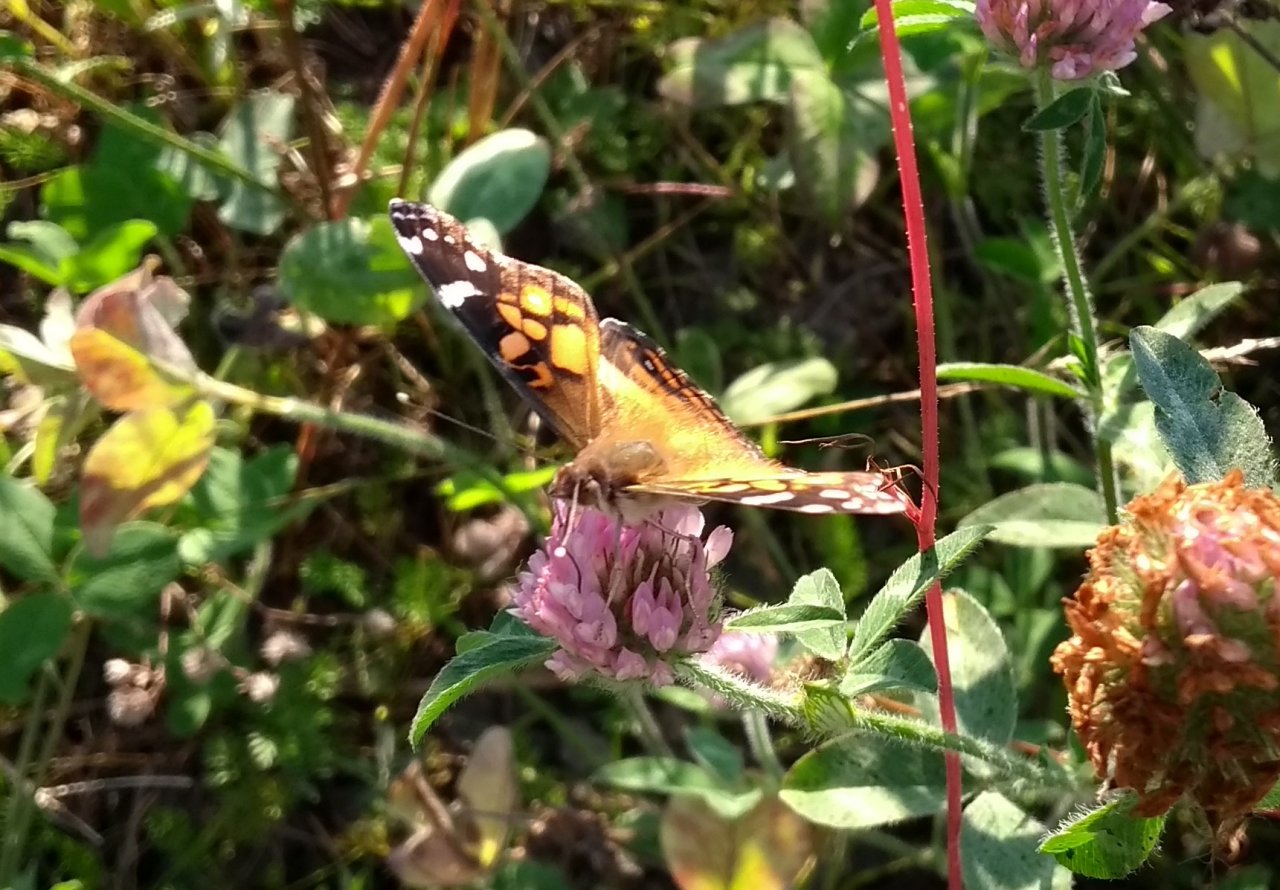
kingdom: Animalia
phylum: Arthropoda
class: Insecta
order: Lepidoptera
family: Nymphalidae
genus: Vanessa
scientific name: Vanessa virginiensis
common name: American Lady
